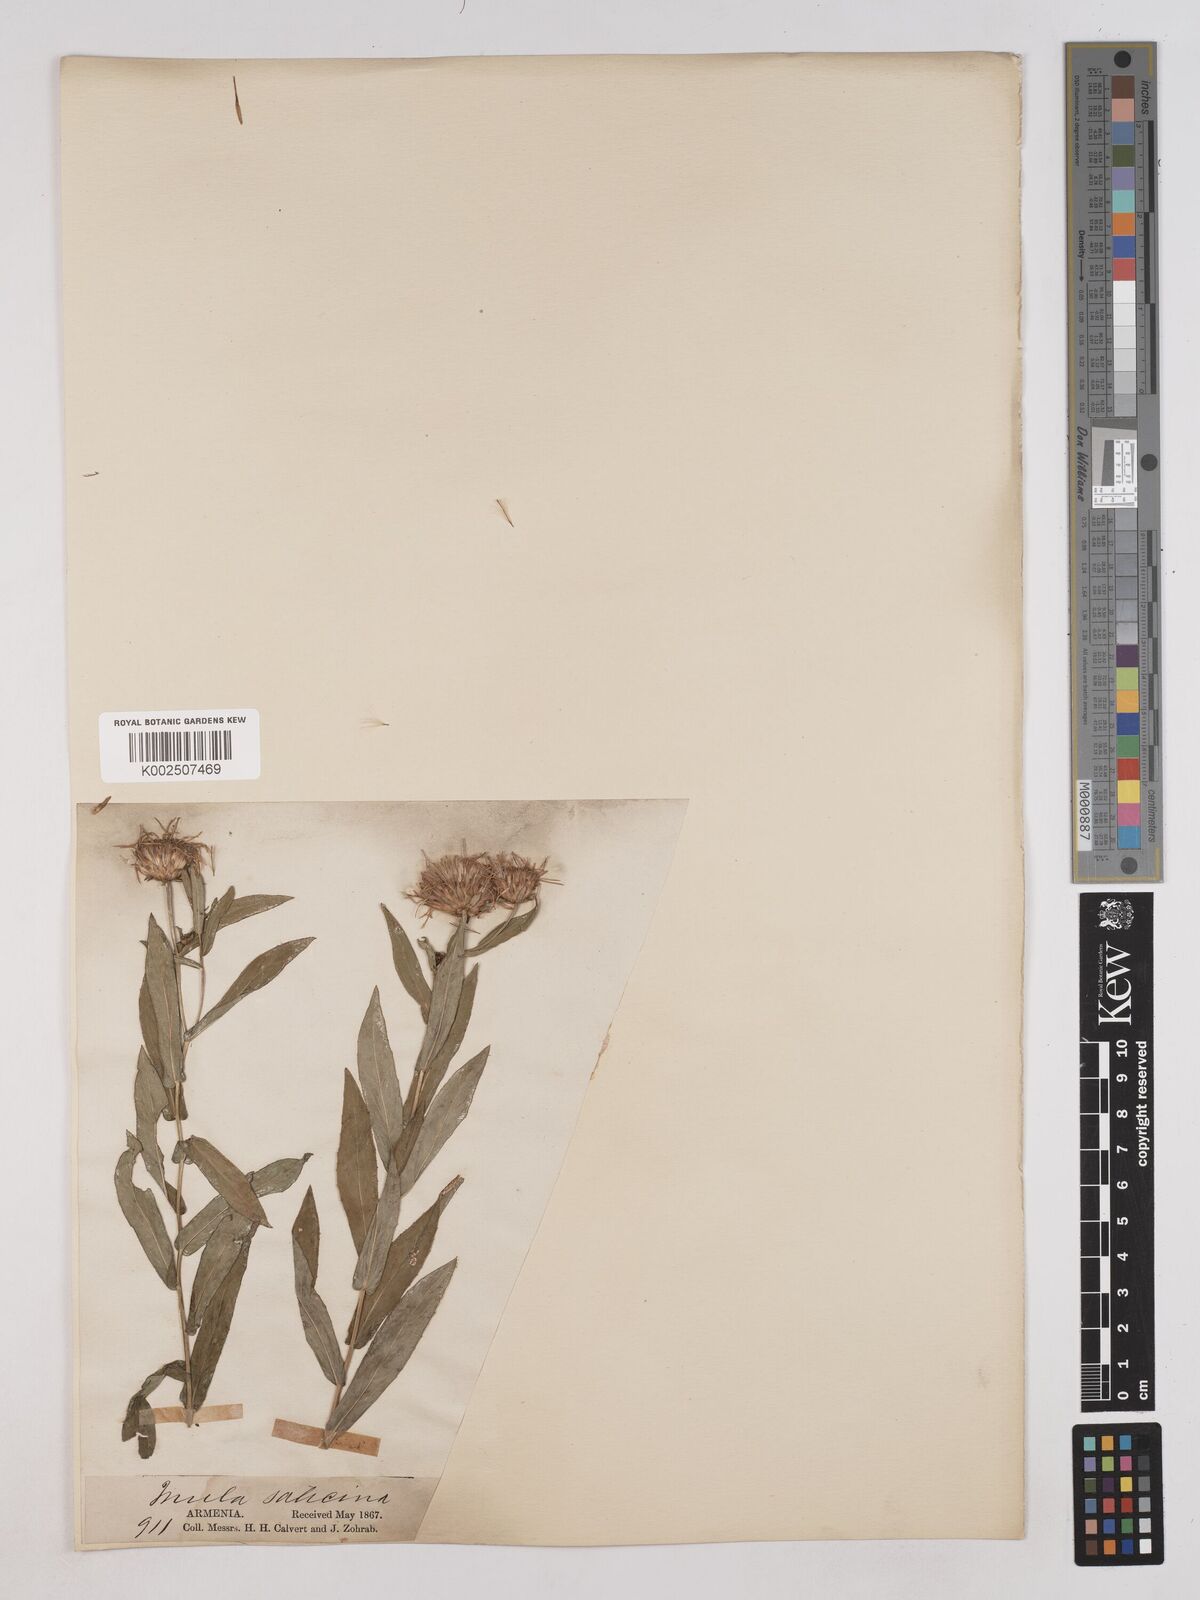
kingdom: Plantae
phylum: Tracheophyta
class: Magnoliopsida
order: Asterales
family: Asteraceae
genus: Pentanema
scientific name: Pentanema salicinum
